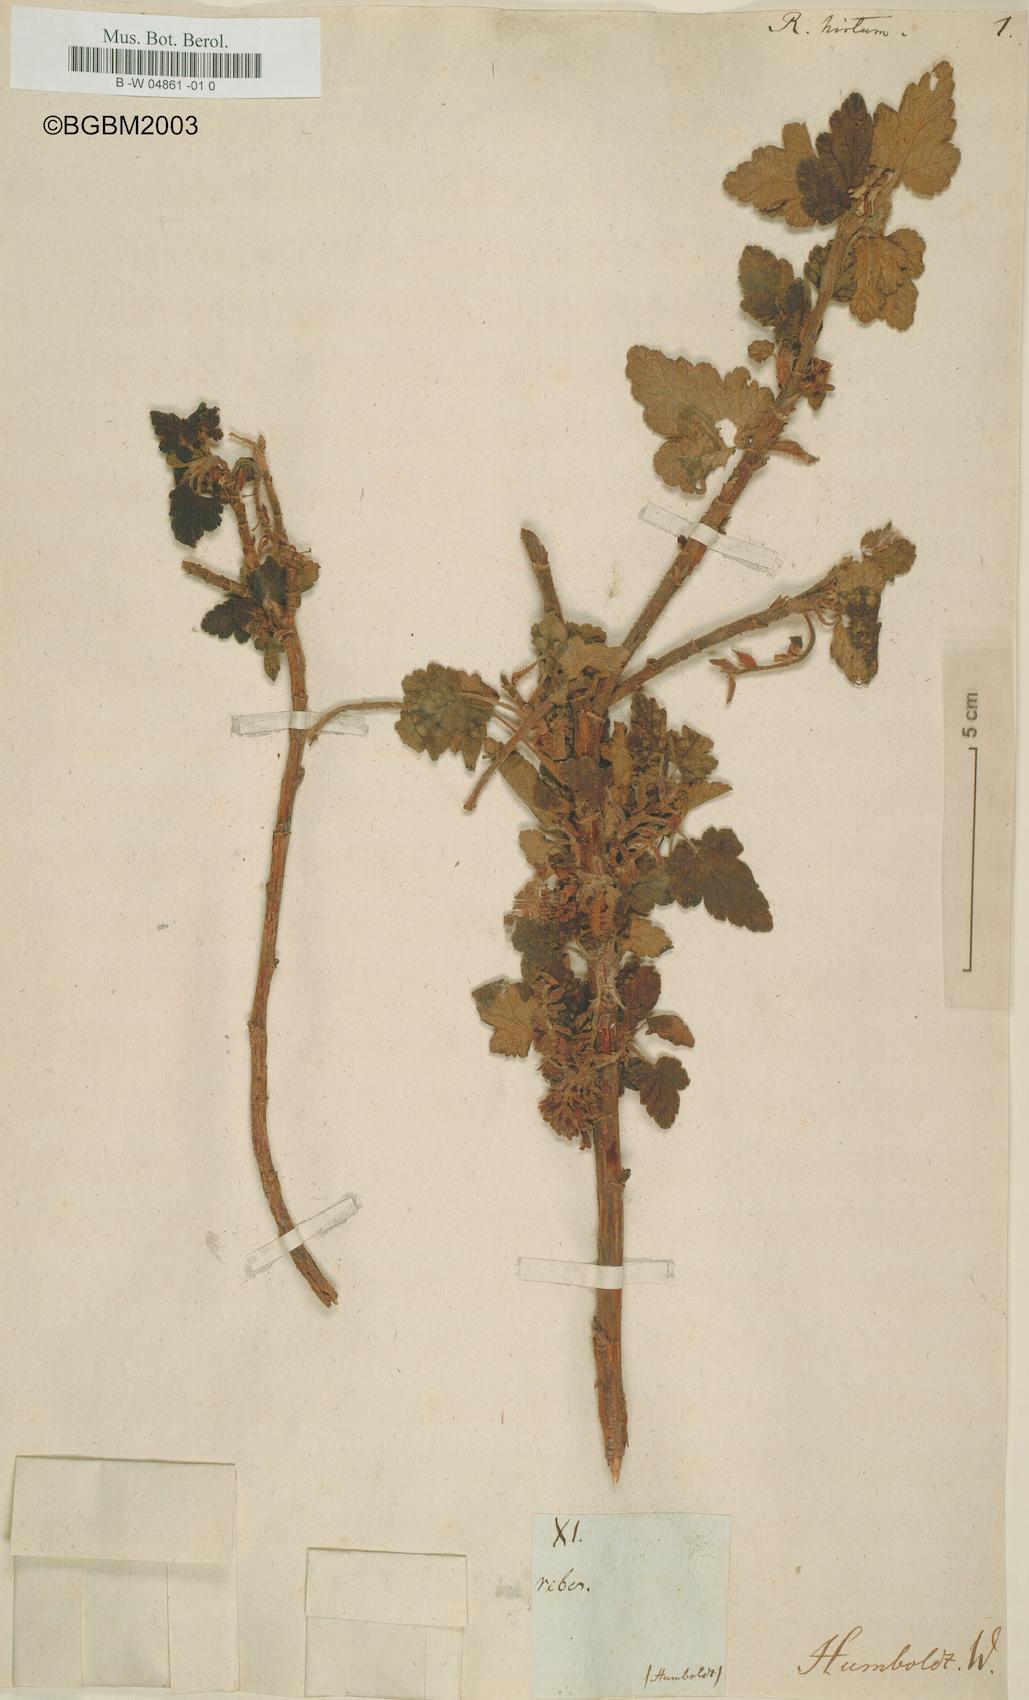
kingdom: Plantae
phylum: Tracheophyta
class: Magnoliopsida
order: Saxifragales
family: Grossulariaceae
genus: Ribes
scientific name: Ribes hirtum
